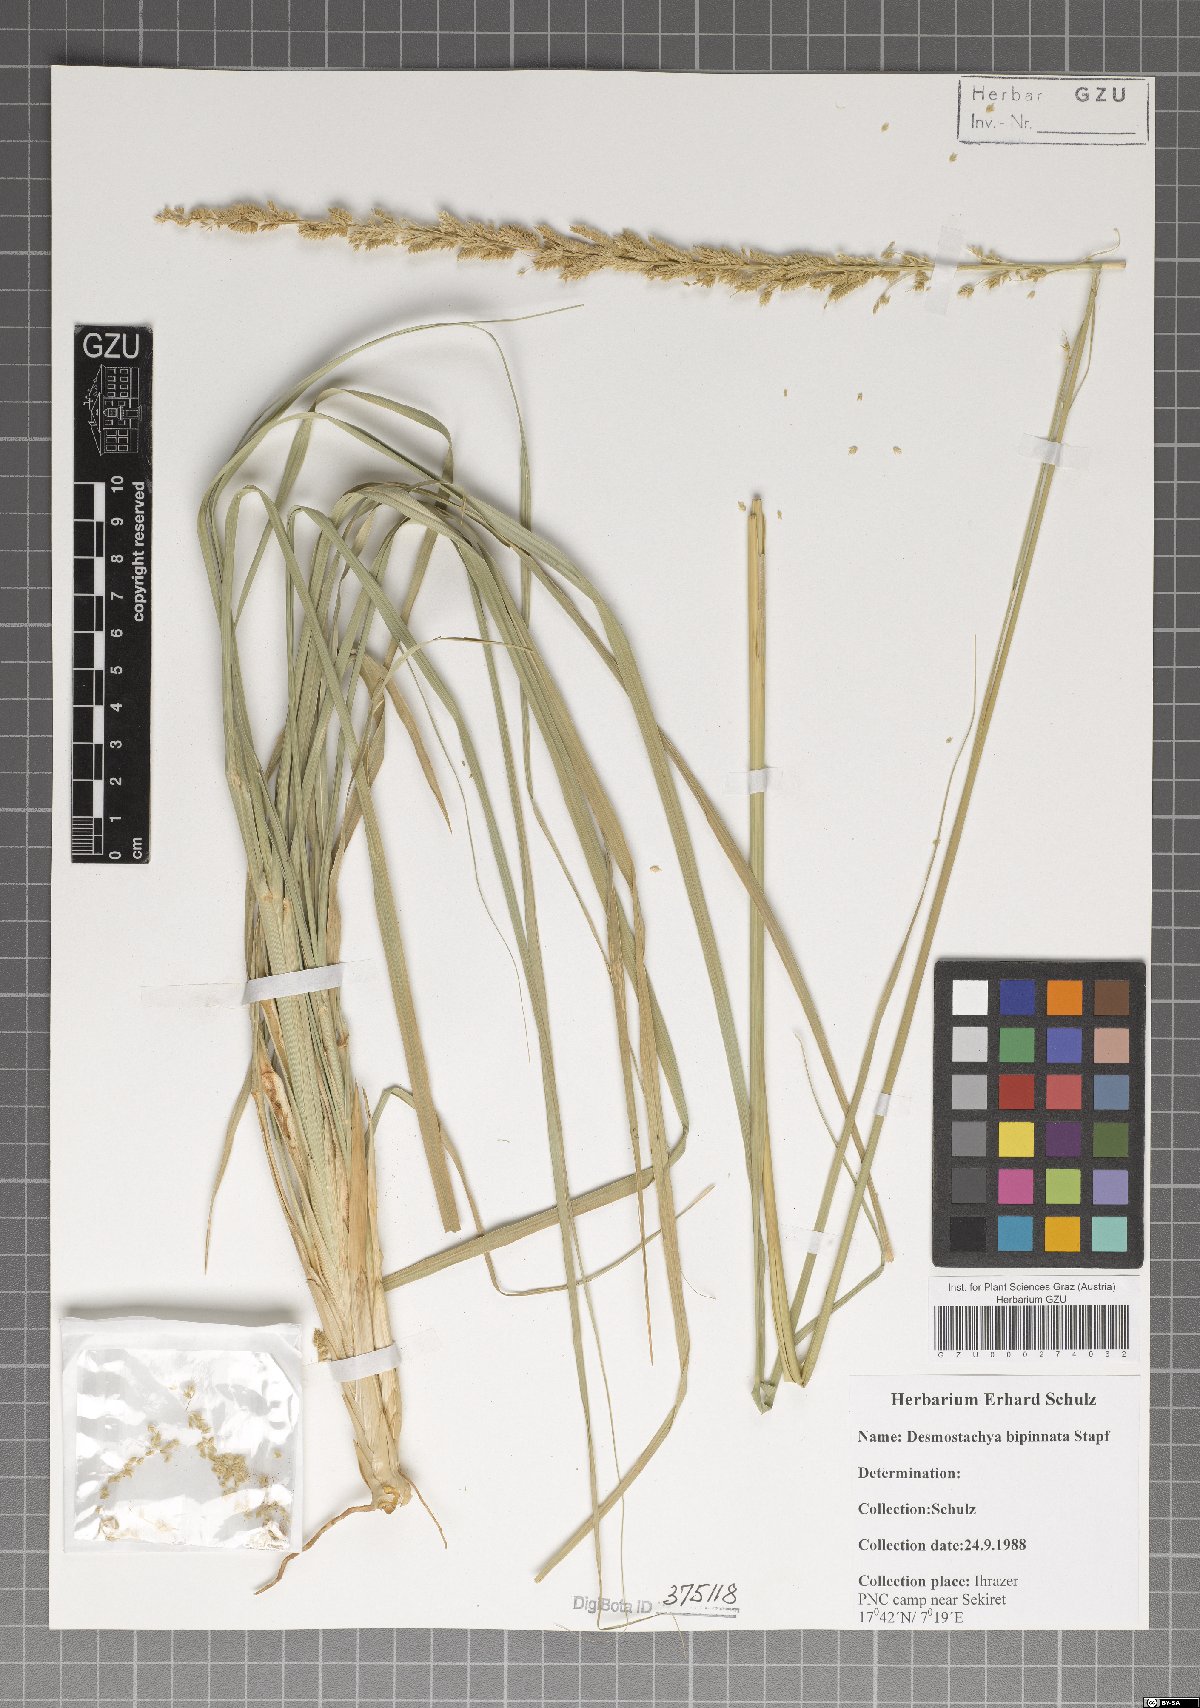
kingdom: Plantae
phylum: Tracheophyta
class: Liliopsida
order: Poales
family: Poaceae
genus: Desmostachya
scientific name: Desmostachya bipinnata
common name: Crowfoot grass
